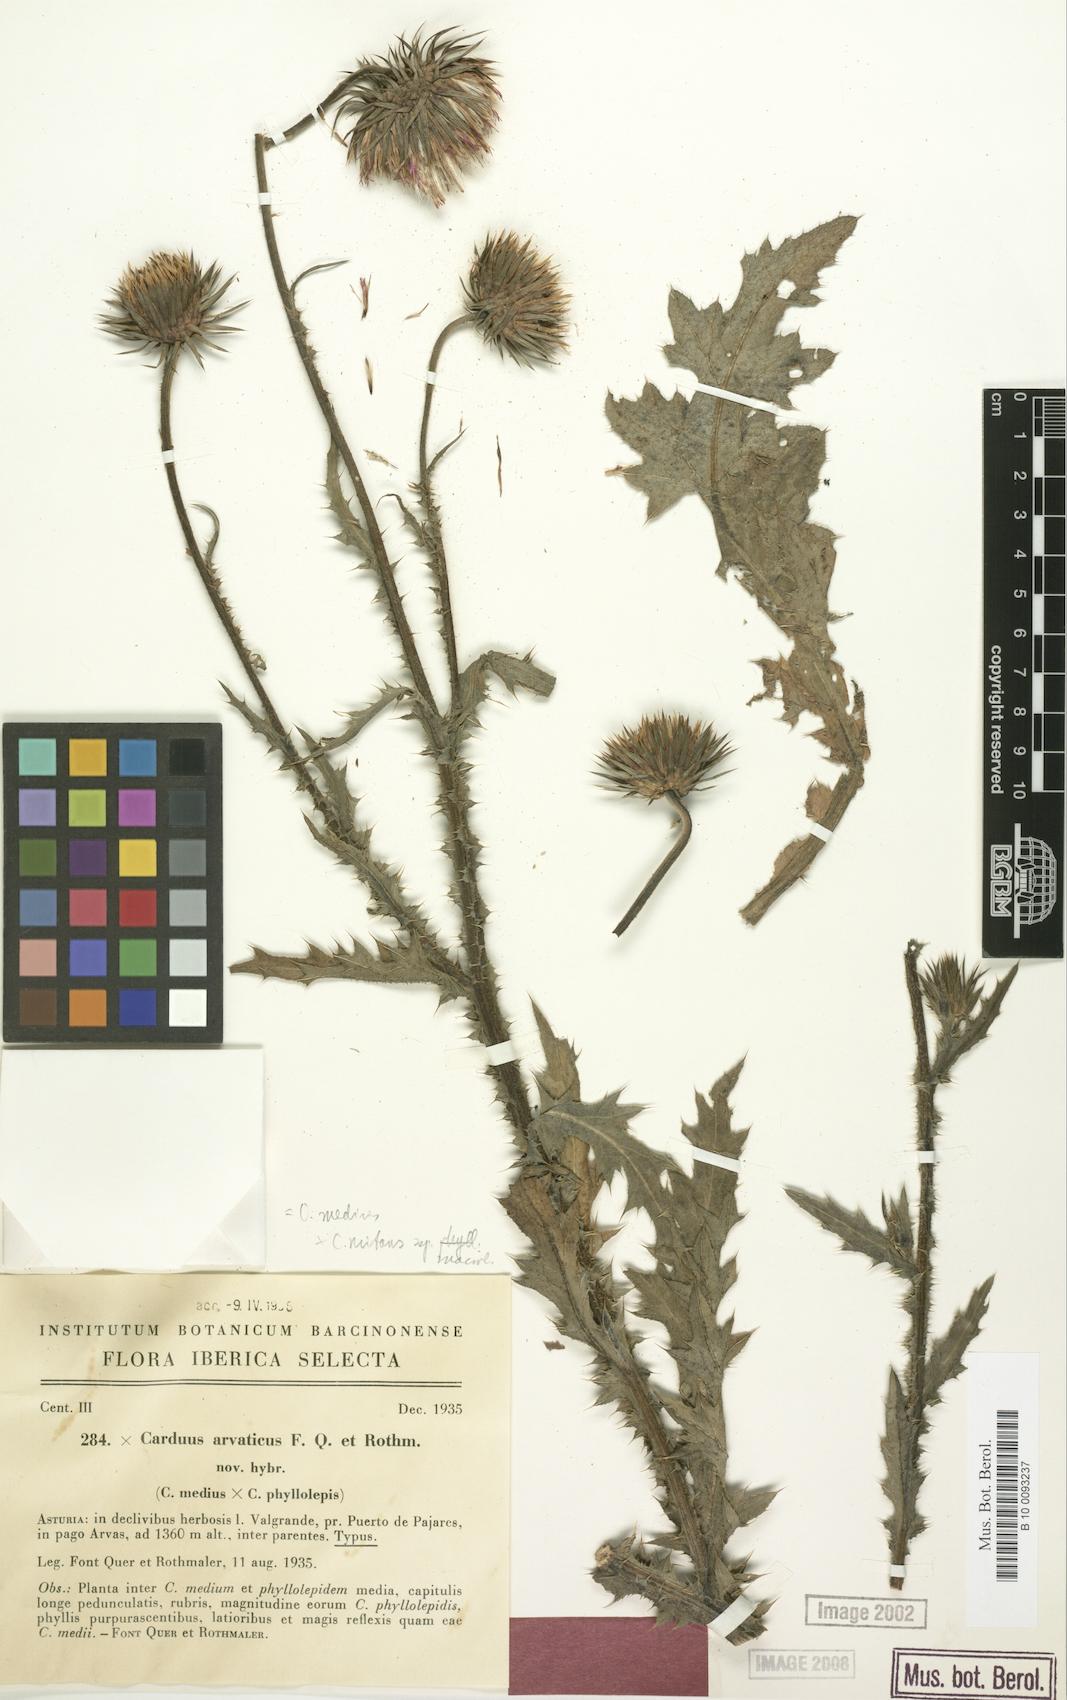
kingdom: Plantae
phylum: Tracheophyta
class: Magnoliopsida
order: Asterales
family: Asteraceae
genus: Carduus
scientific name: Carduus arvaticus
